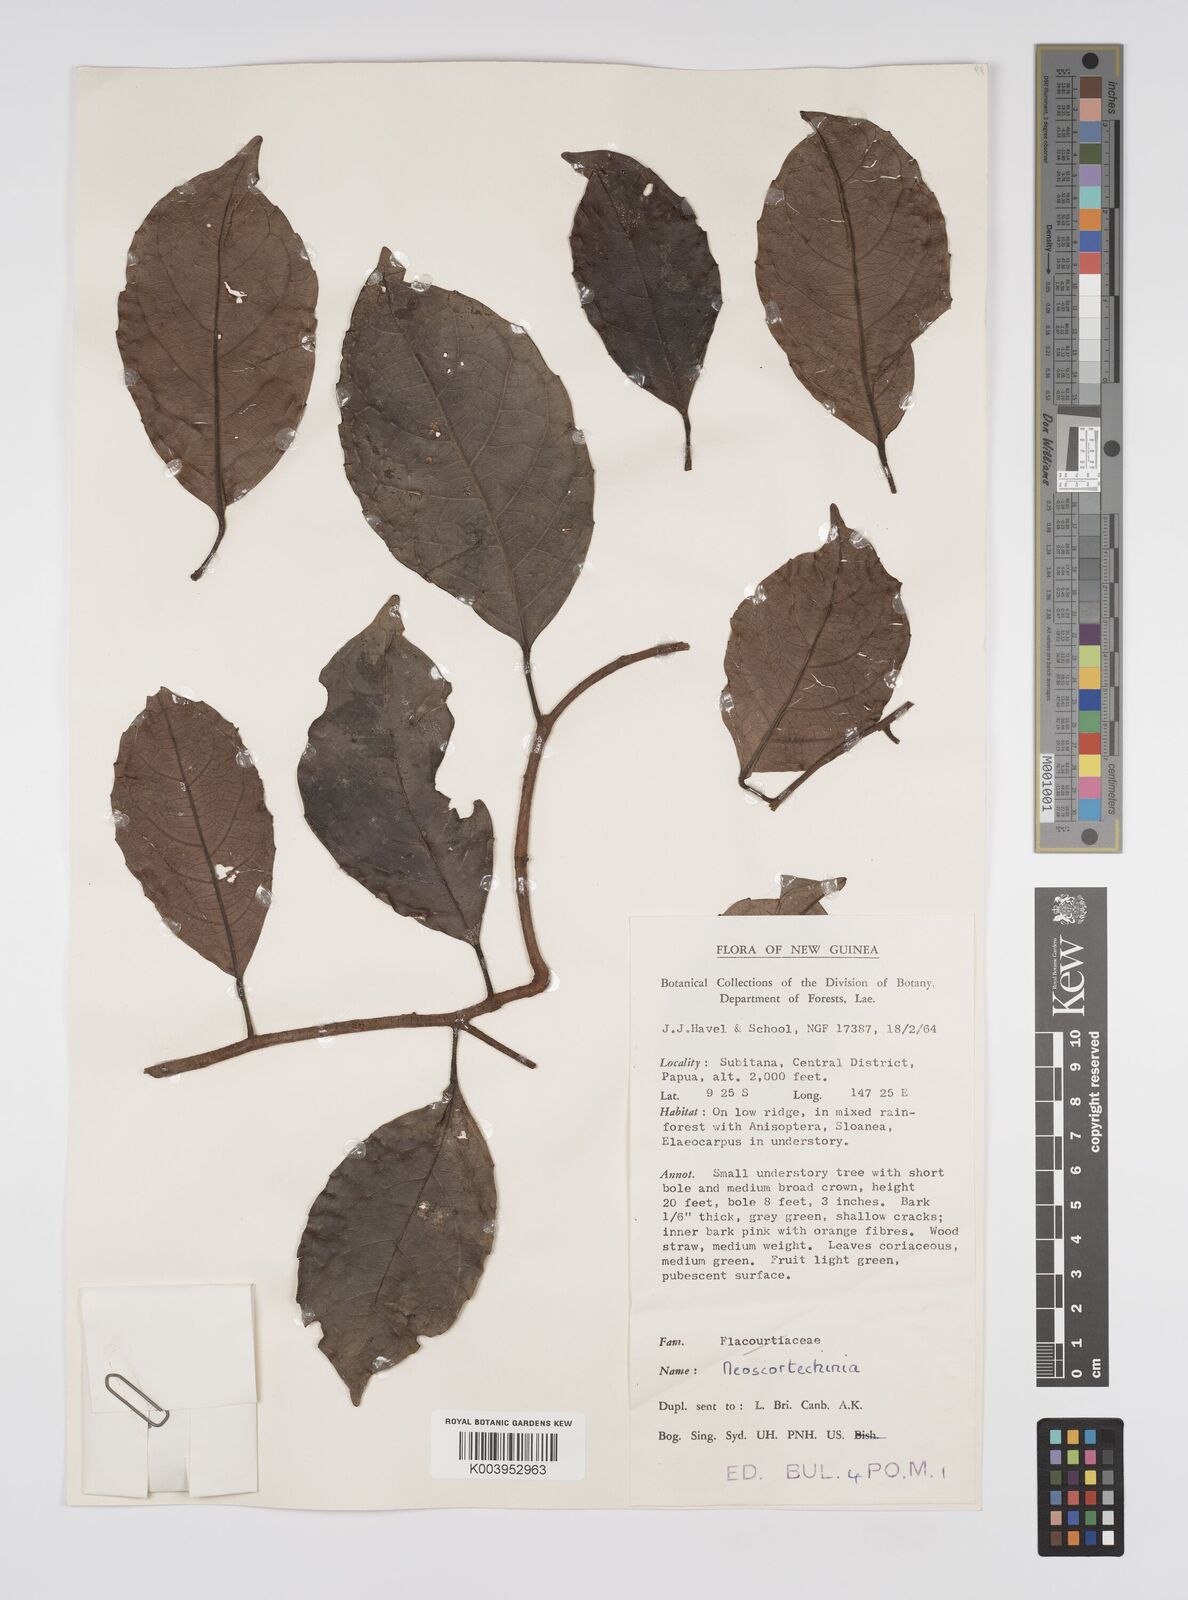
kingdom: Plantae
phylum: Tracheophyta
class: Magnoliopsida
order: Malpighiales
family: Euphorbiaceae
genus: Neoscortechinia
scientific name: Neoscortechinia forbesii
